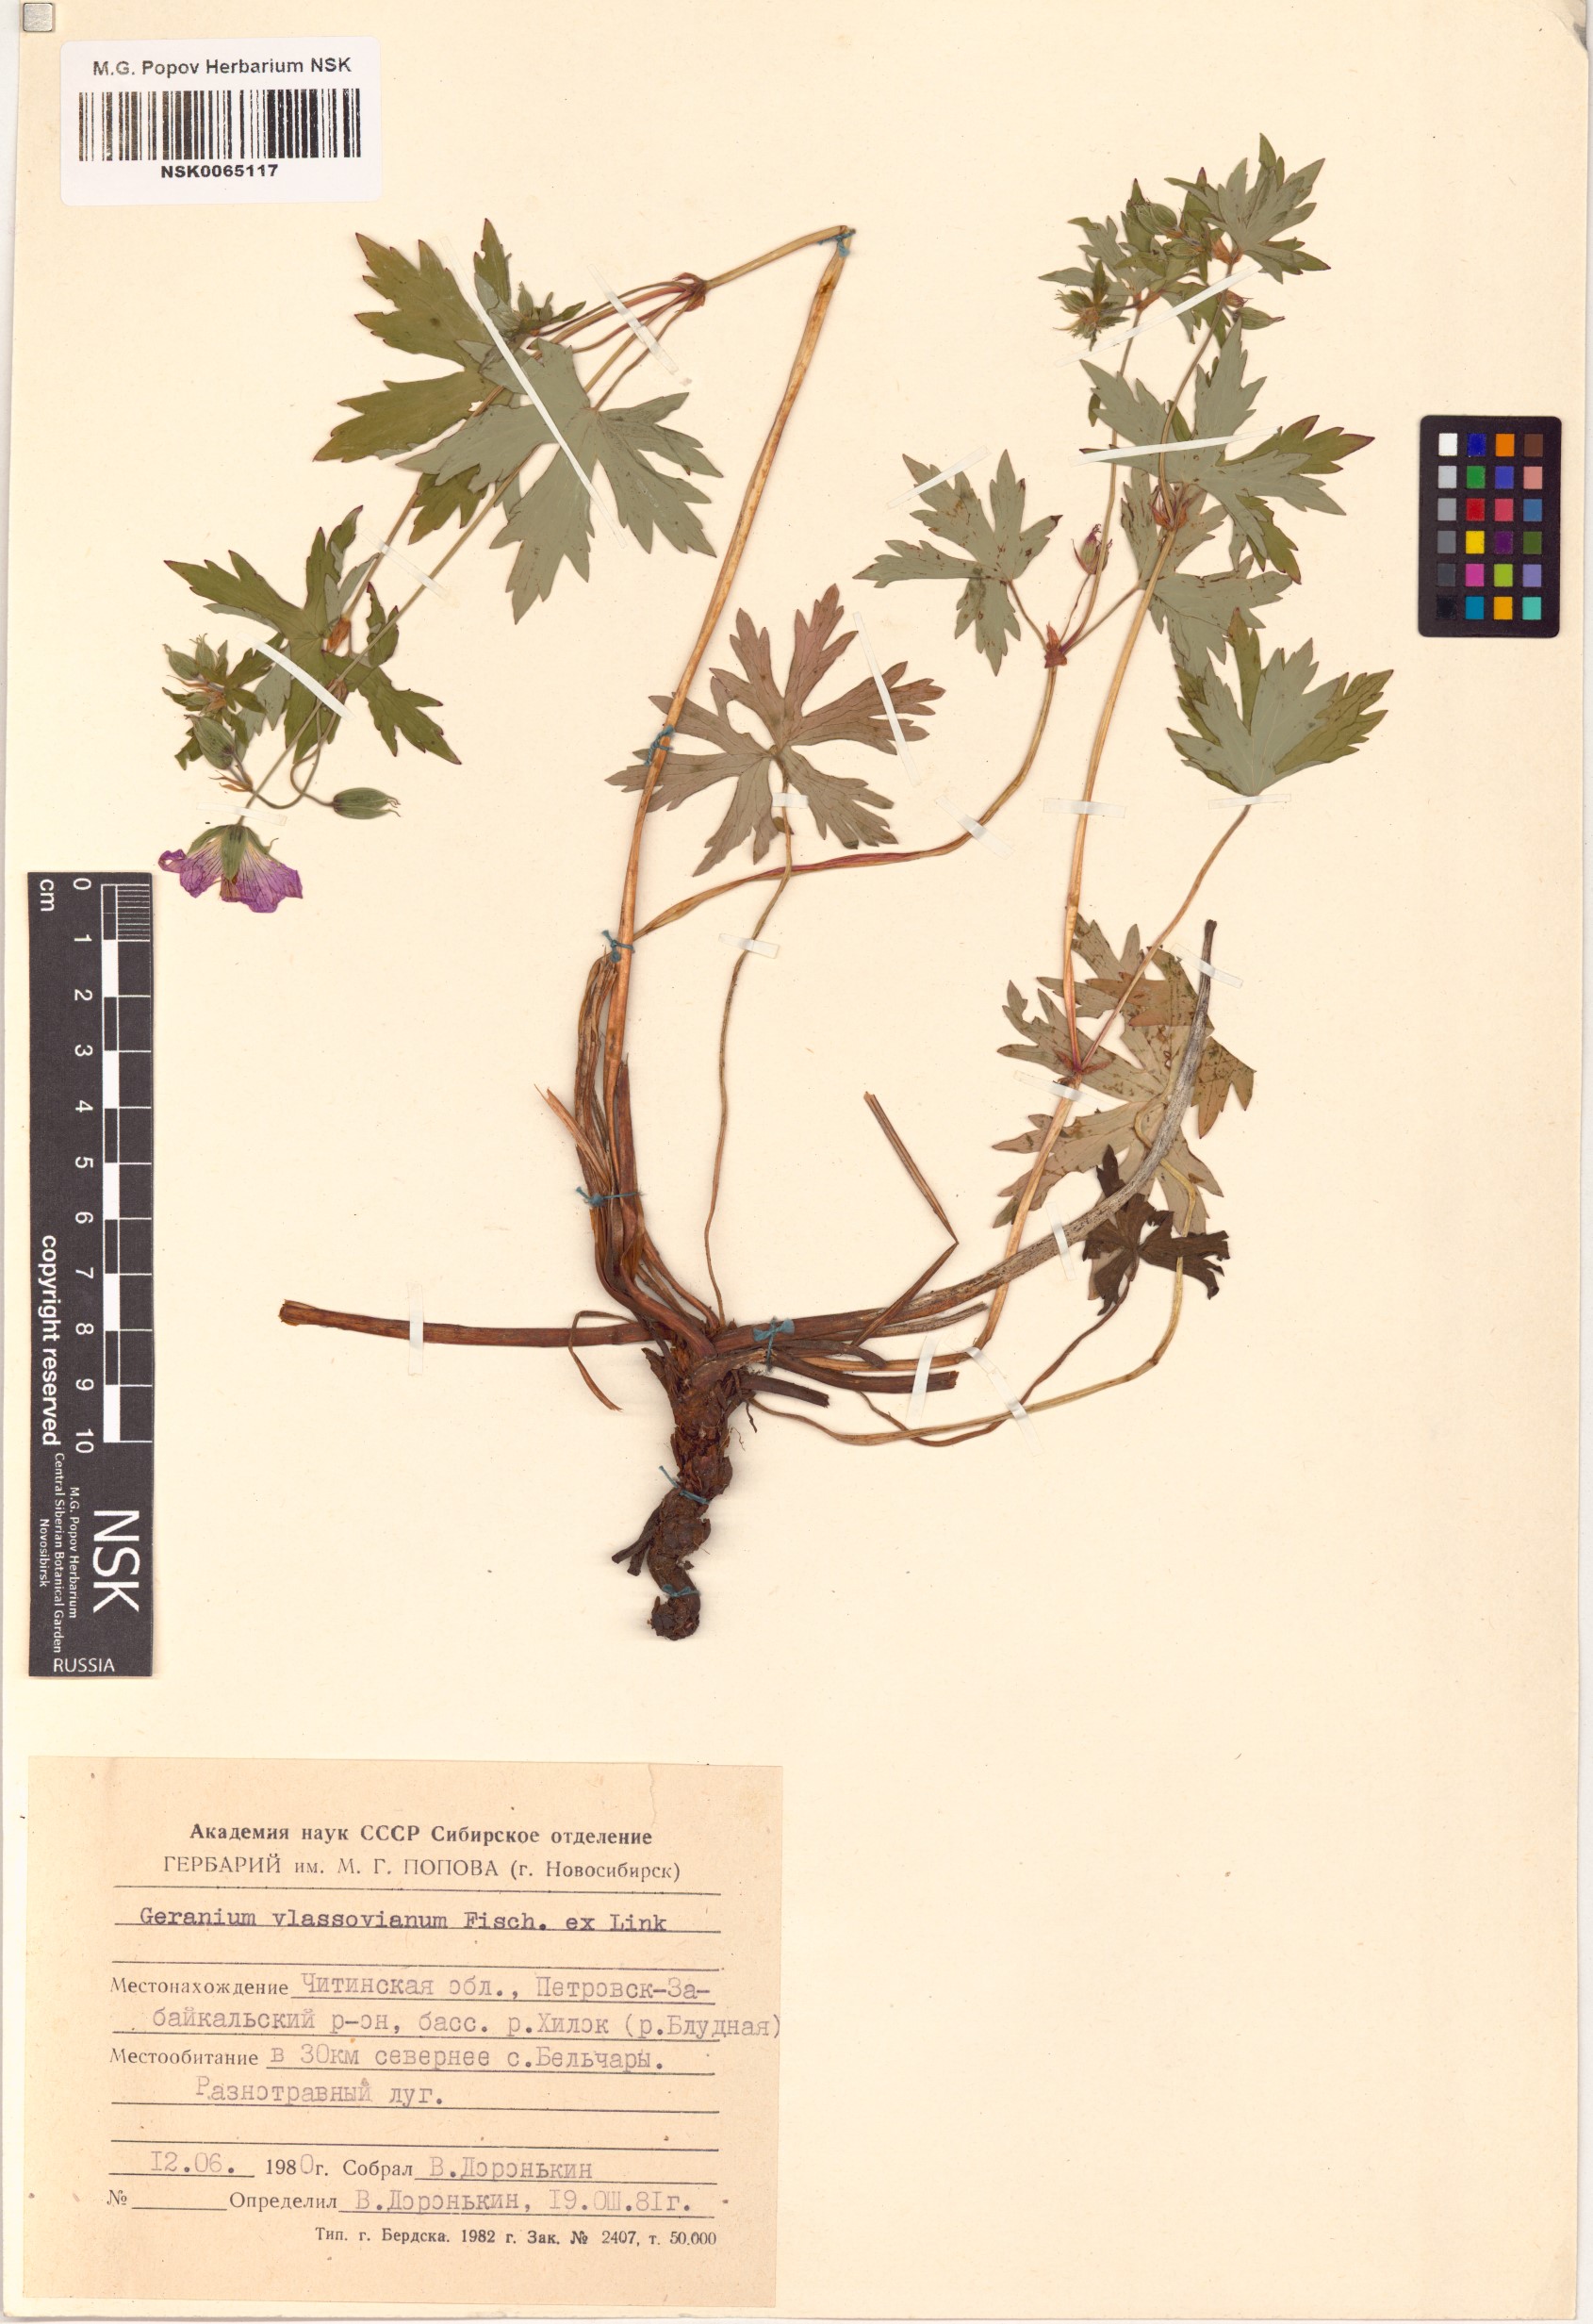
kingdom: Plantae
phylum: Tracheophyta
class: Magnoliopsida
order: Geraniales
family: Geraniaceae
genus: Geranium
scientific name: Geranium wlassovianum
